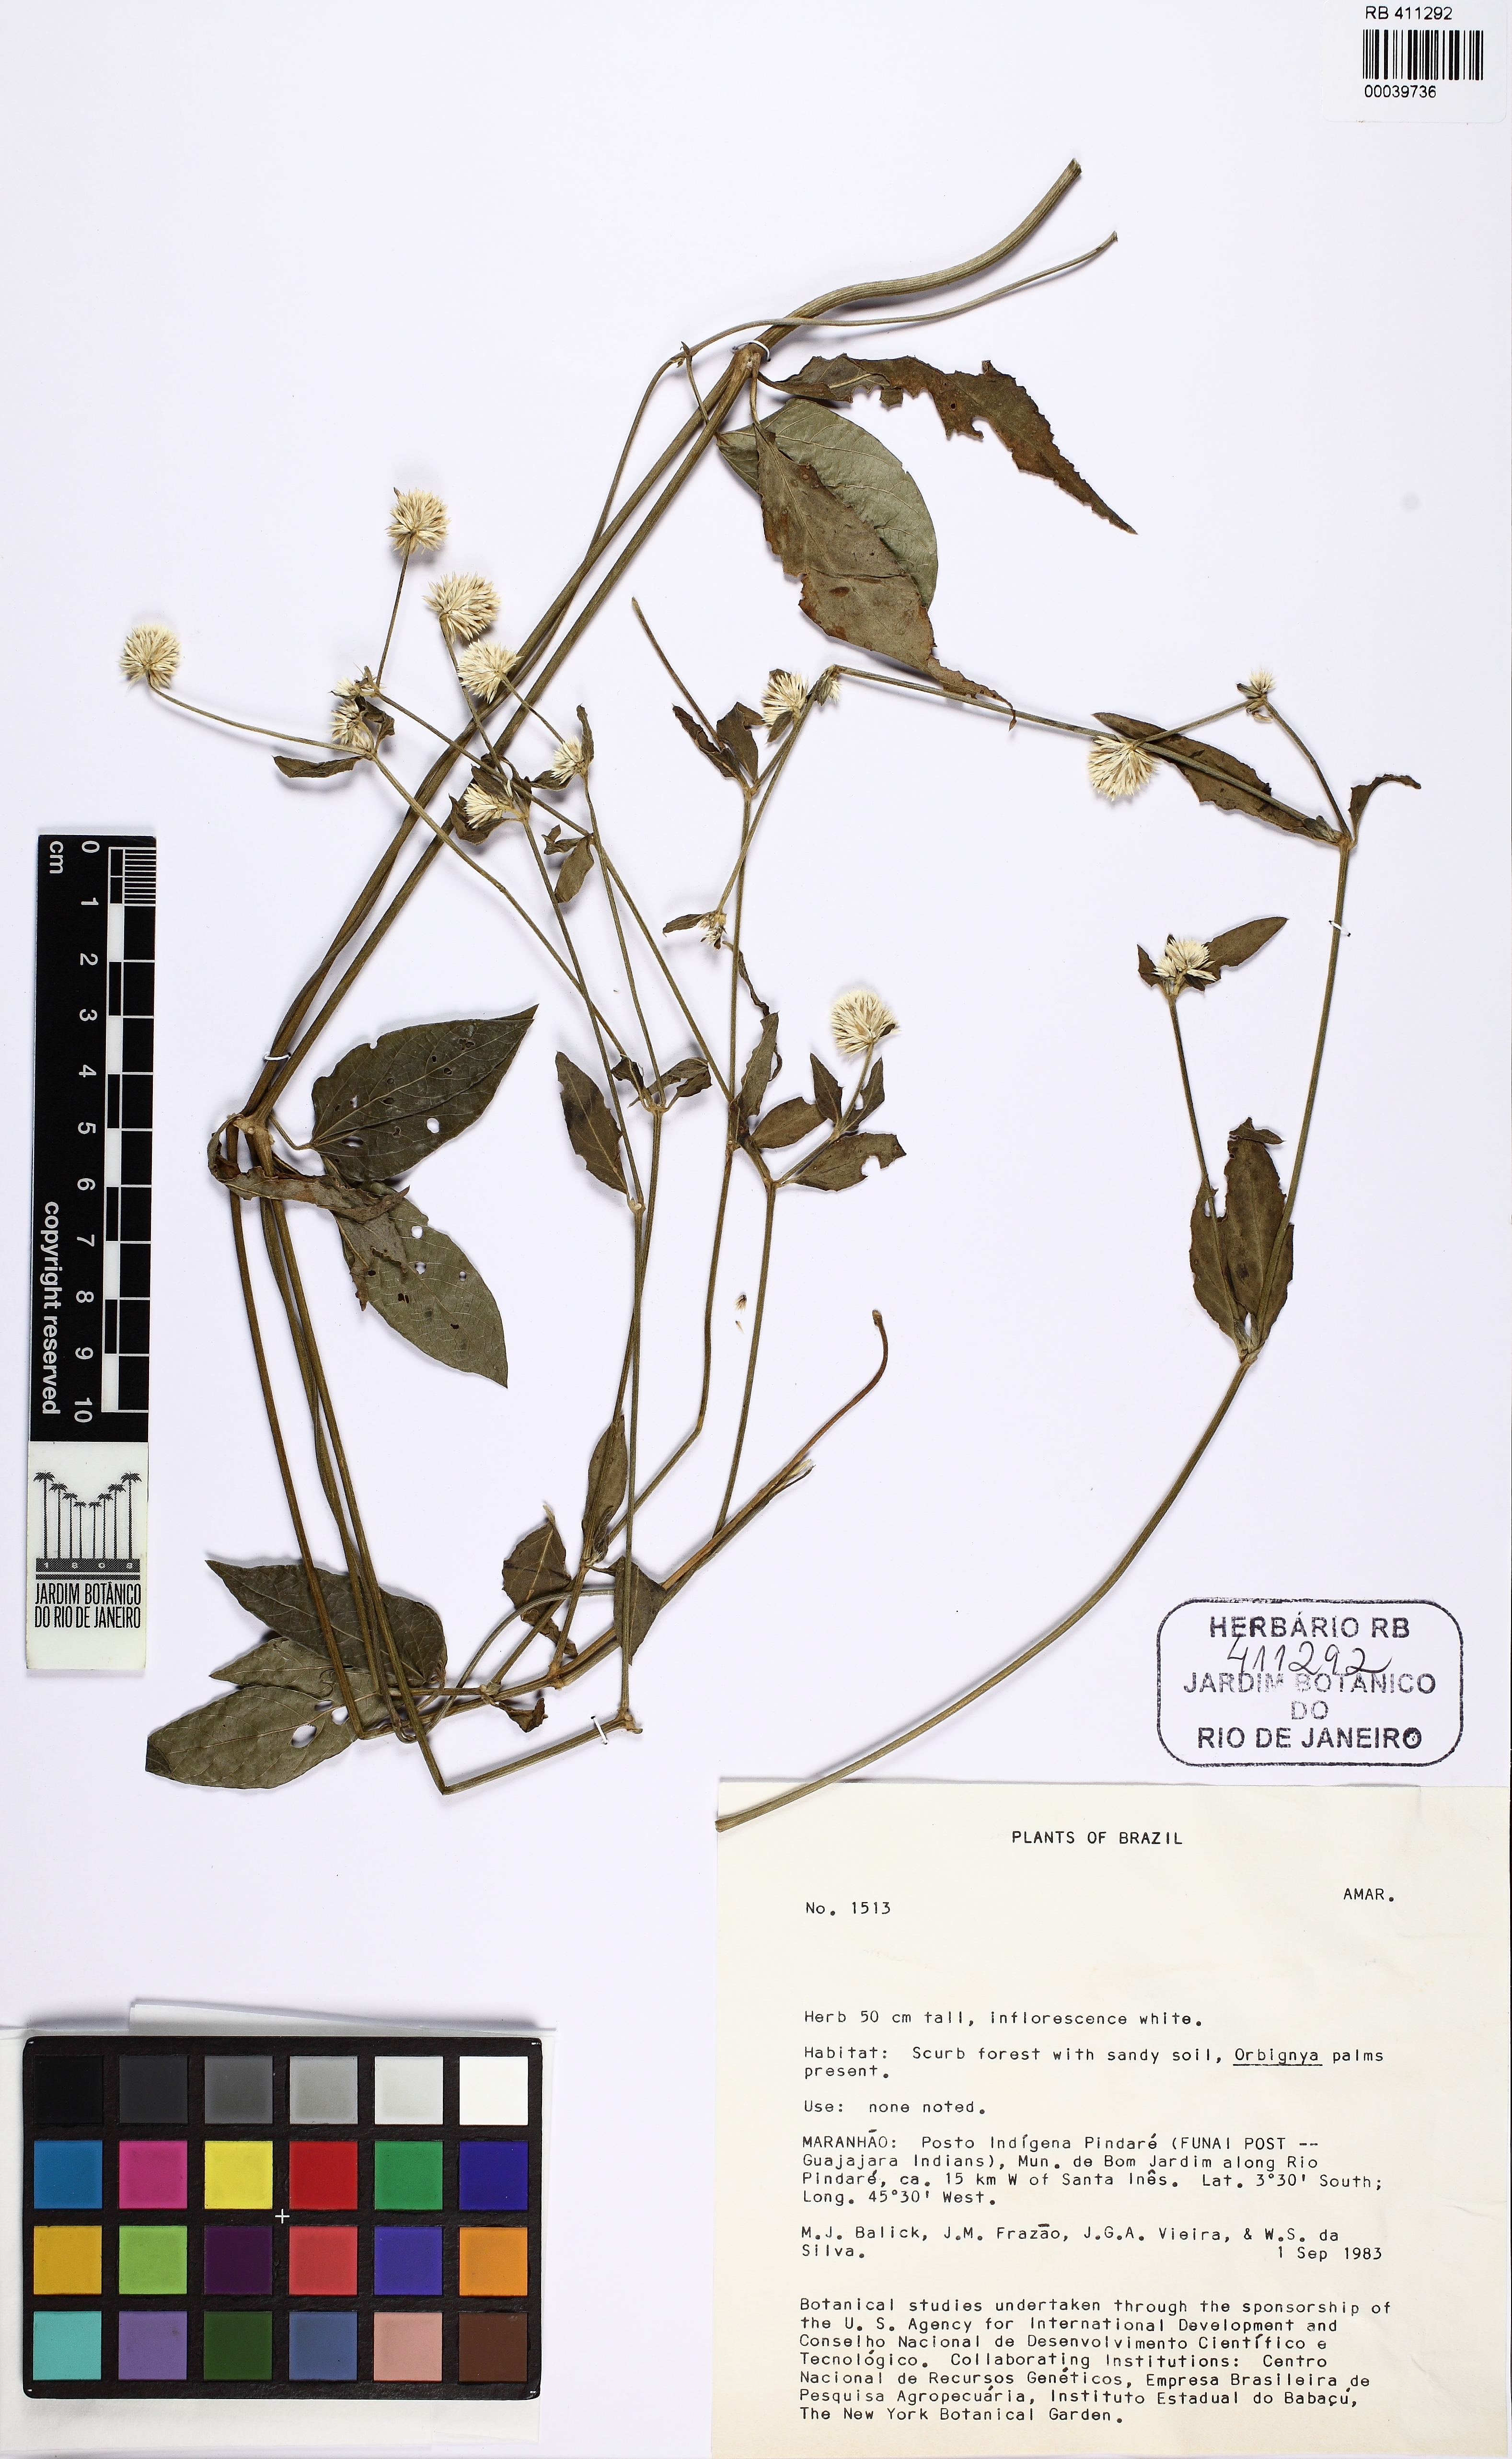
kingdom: Plantae
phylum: Tracheophyta
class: Magnoliopsida
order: Caryophyllales
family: Amaranthaceae
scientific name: Amaranthaceae
